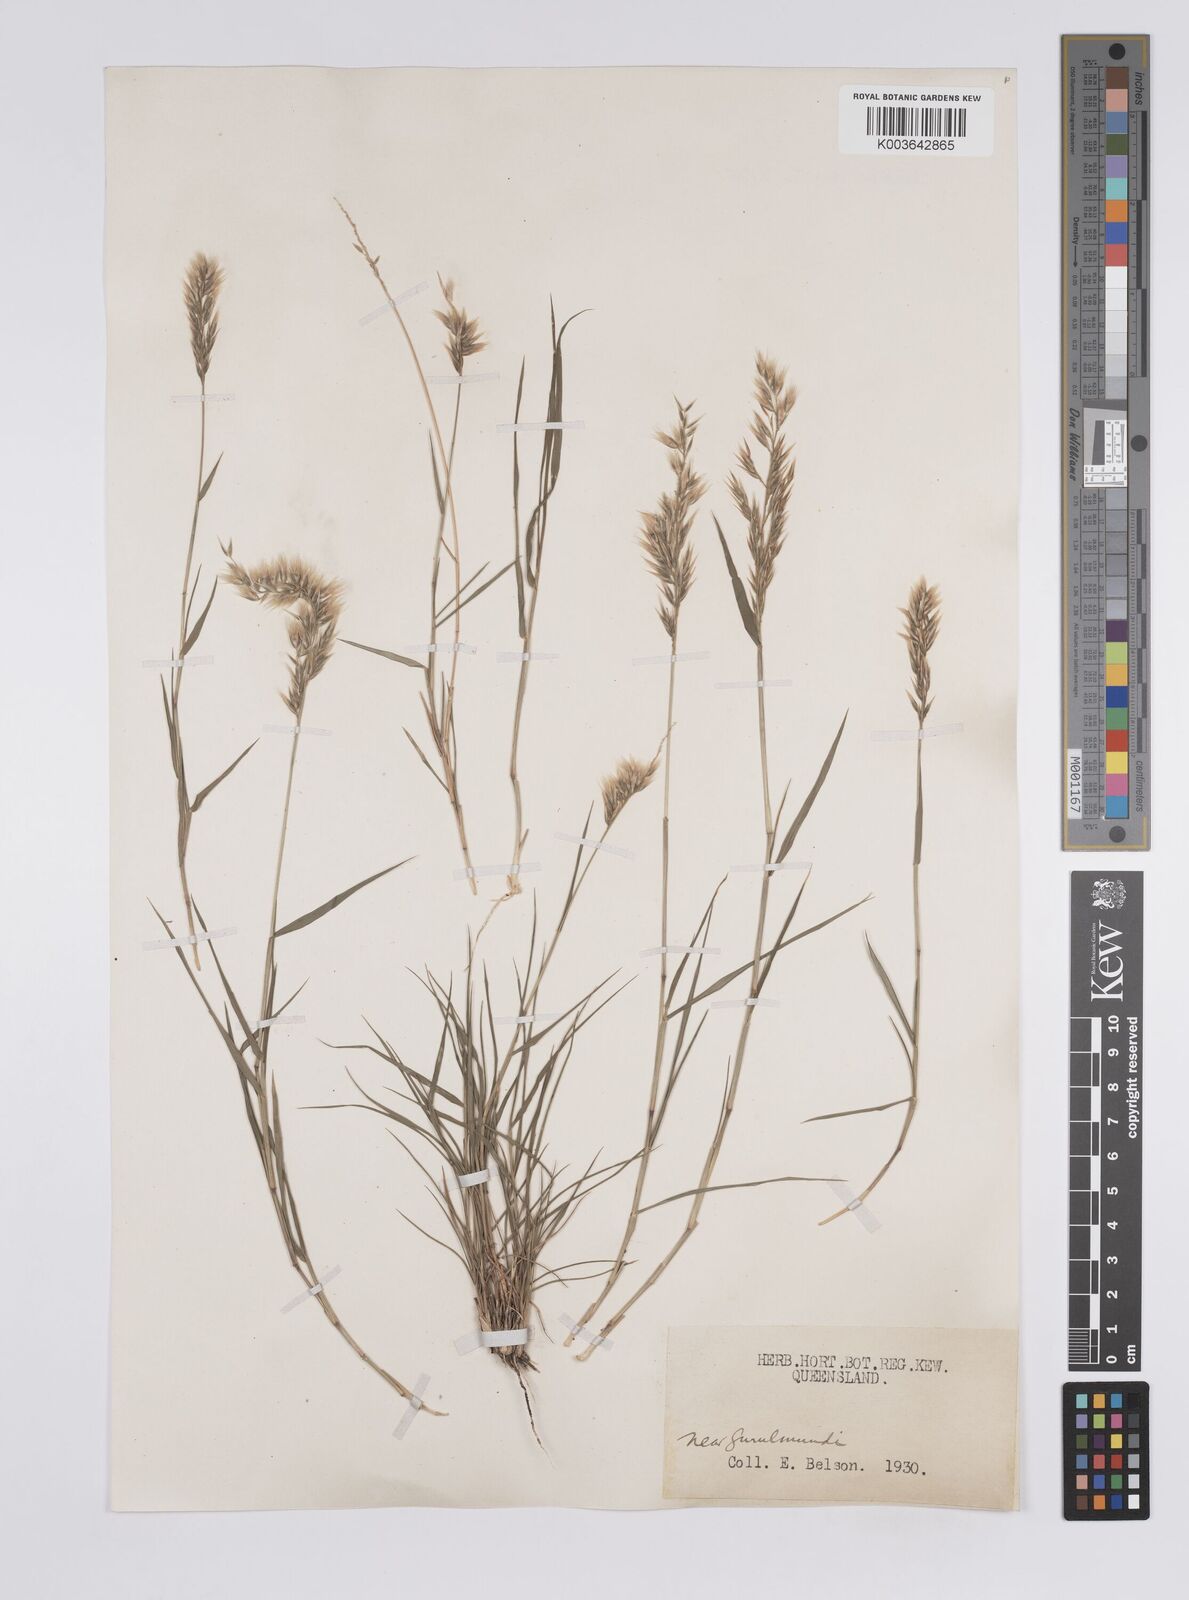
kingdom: Plantae
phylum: Tracheophyta
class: Liliopsida
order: Poales
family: Poaceae
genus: Enneapogon
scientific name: Enneapogon avenaceus
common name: Hairy oat grass
